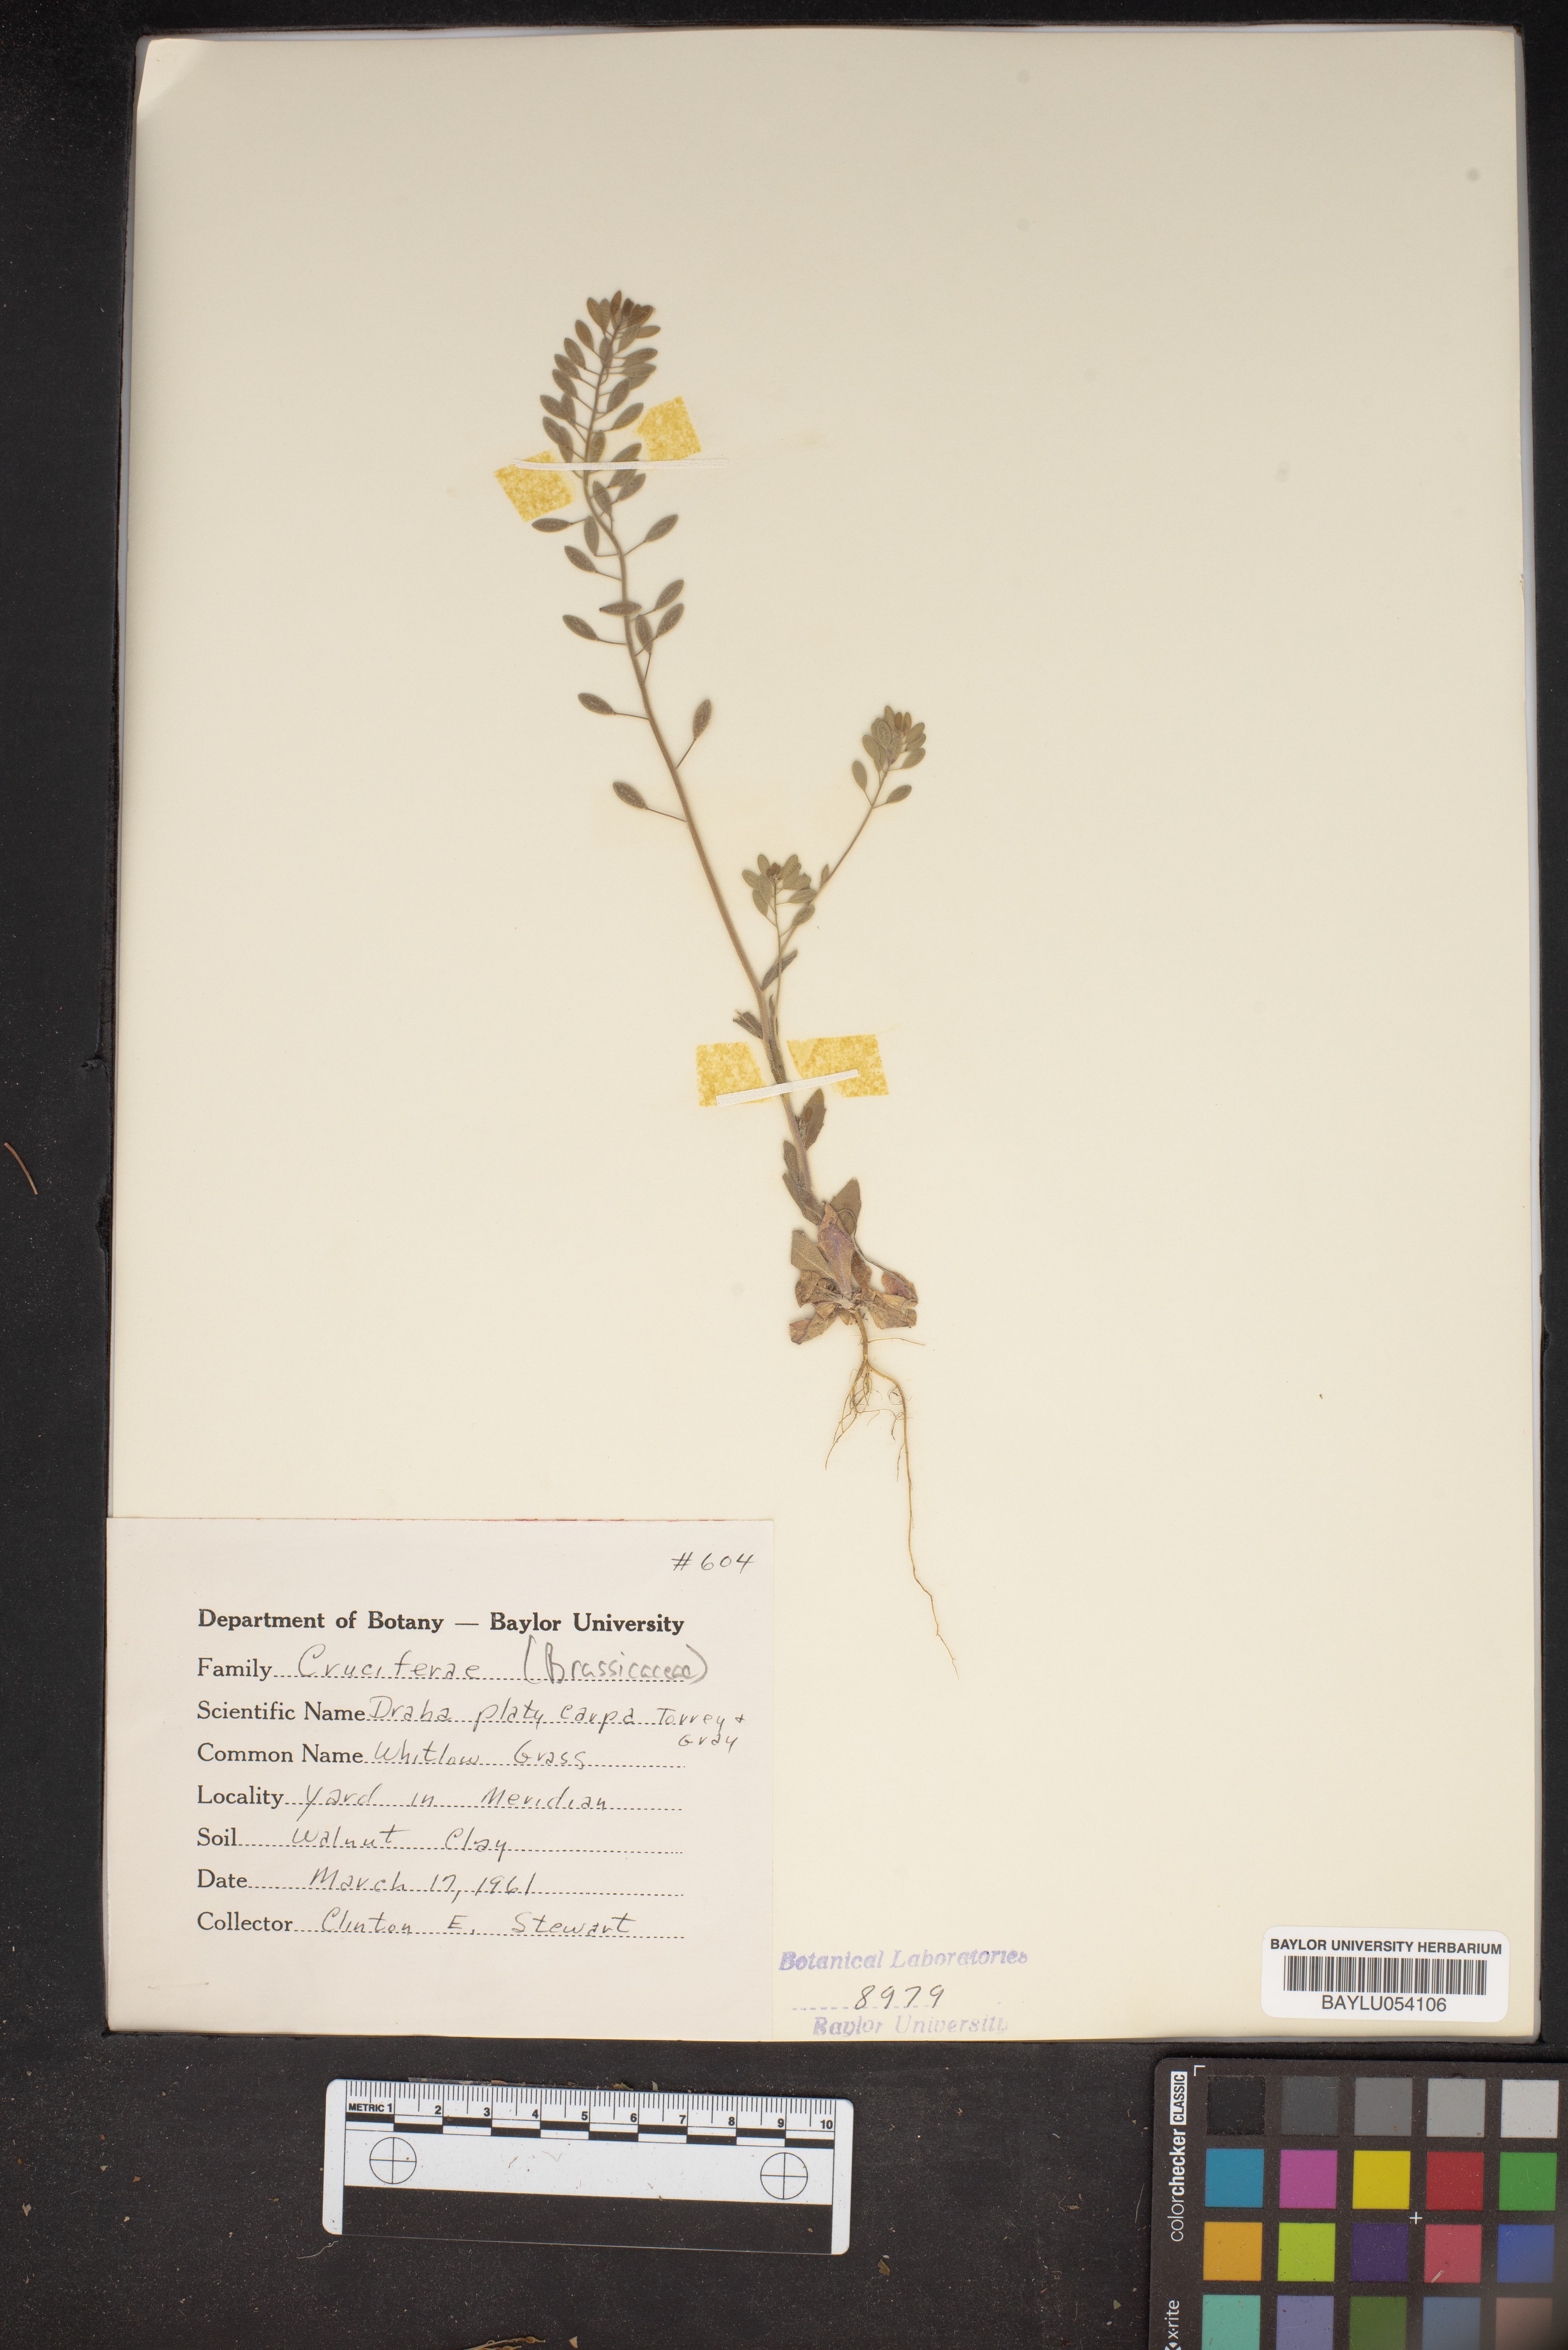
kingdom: Plantae
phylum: Tracheophyta
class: Magnoliopsida
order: Brassicales
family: Brassicaceae
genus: Tomostima
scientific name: Tomostima platycarpa
